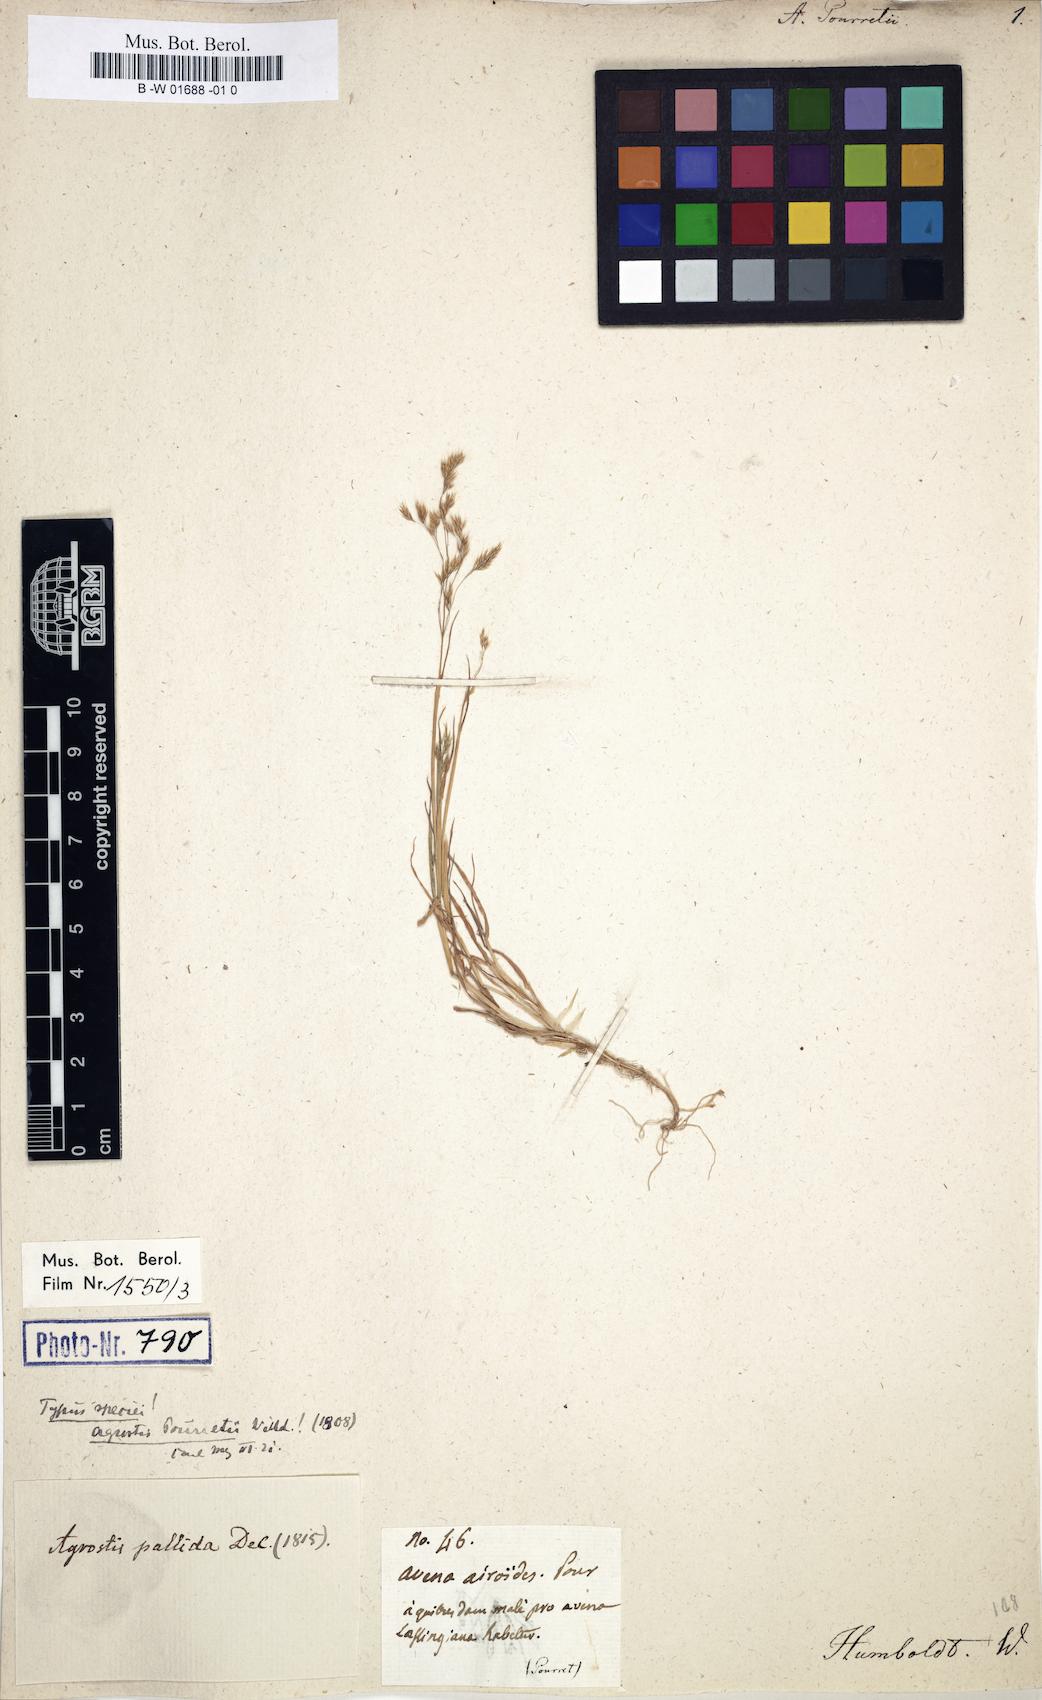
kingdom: Plantae
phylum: Tracheophyta
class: Liliopsida
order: Poales
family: Poaceae
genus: Agrostis
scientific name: Agrostis pourretii
